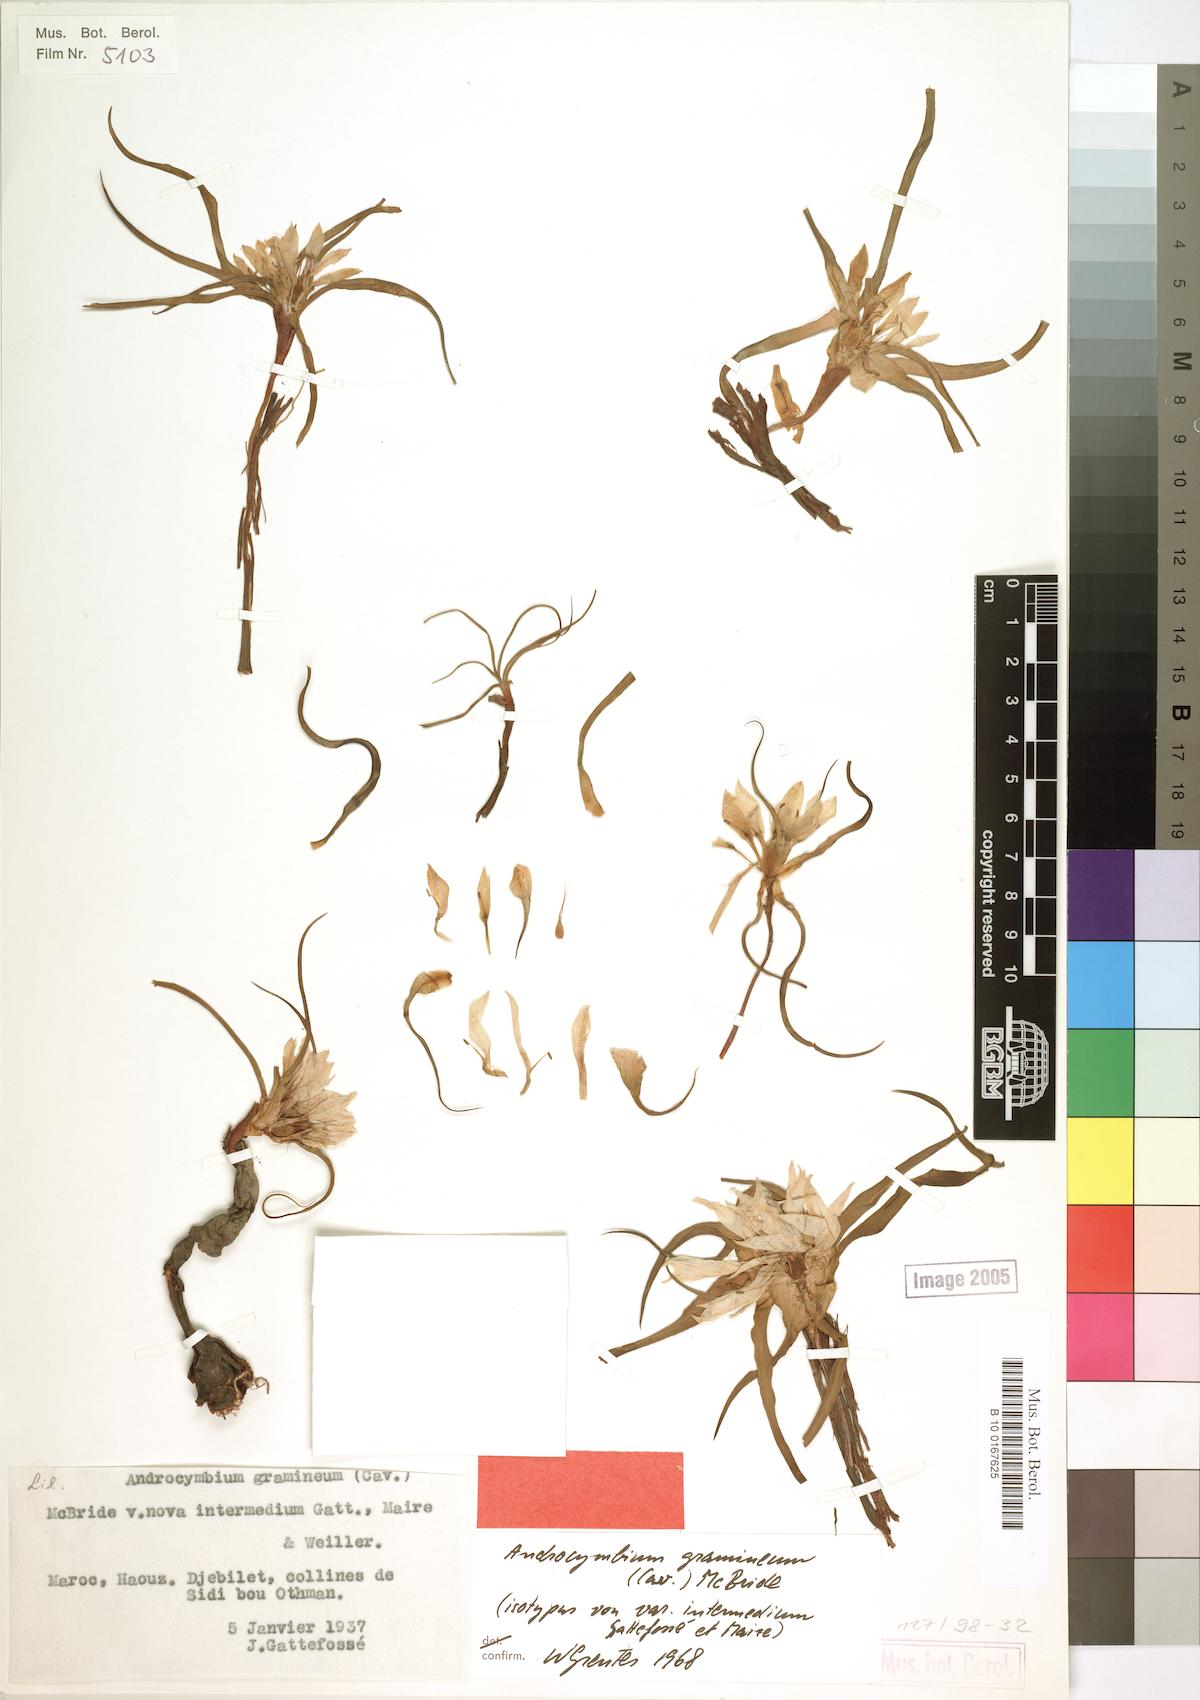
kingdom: Plantae
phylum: Tracheophyta
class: Liliopsida
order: Liliales
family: Colchicaceae
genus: Colchicum
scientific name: Colchicum gramineum
